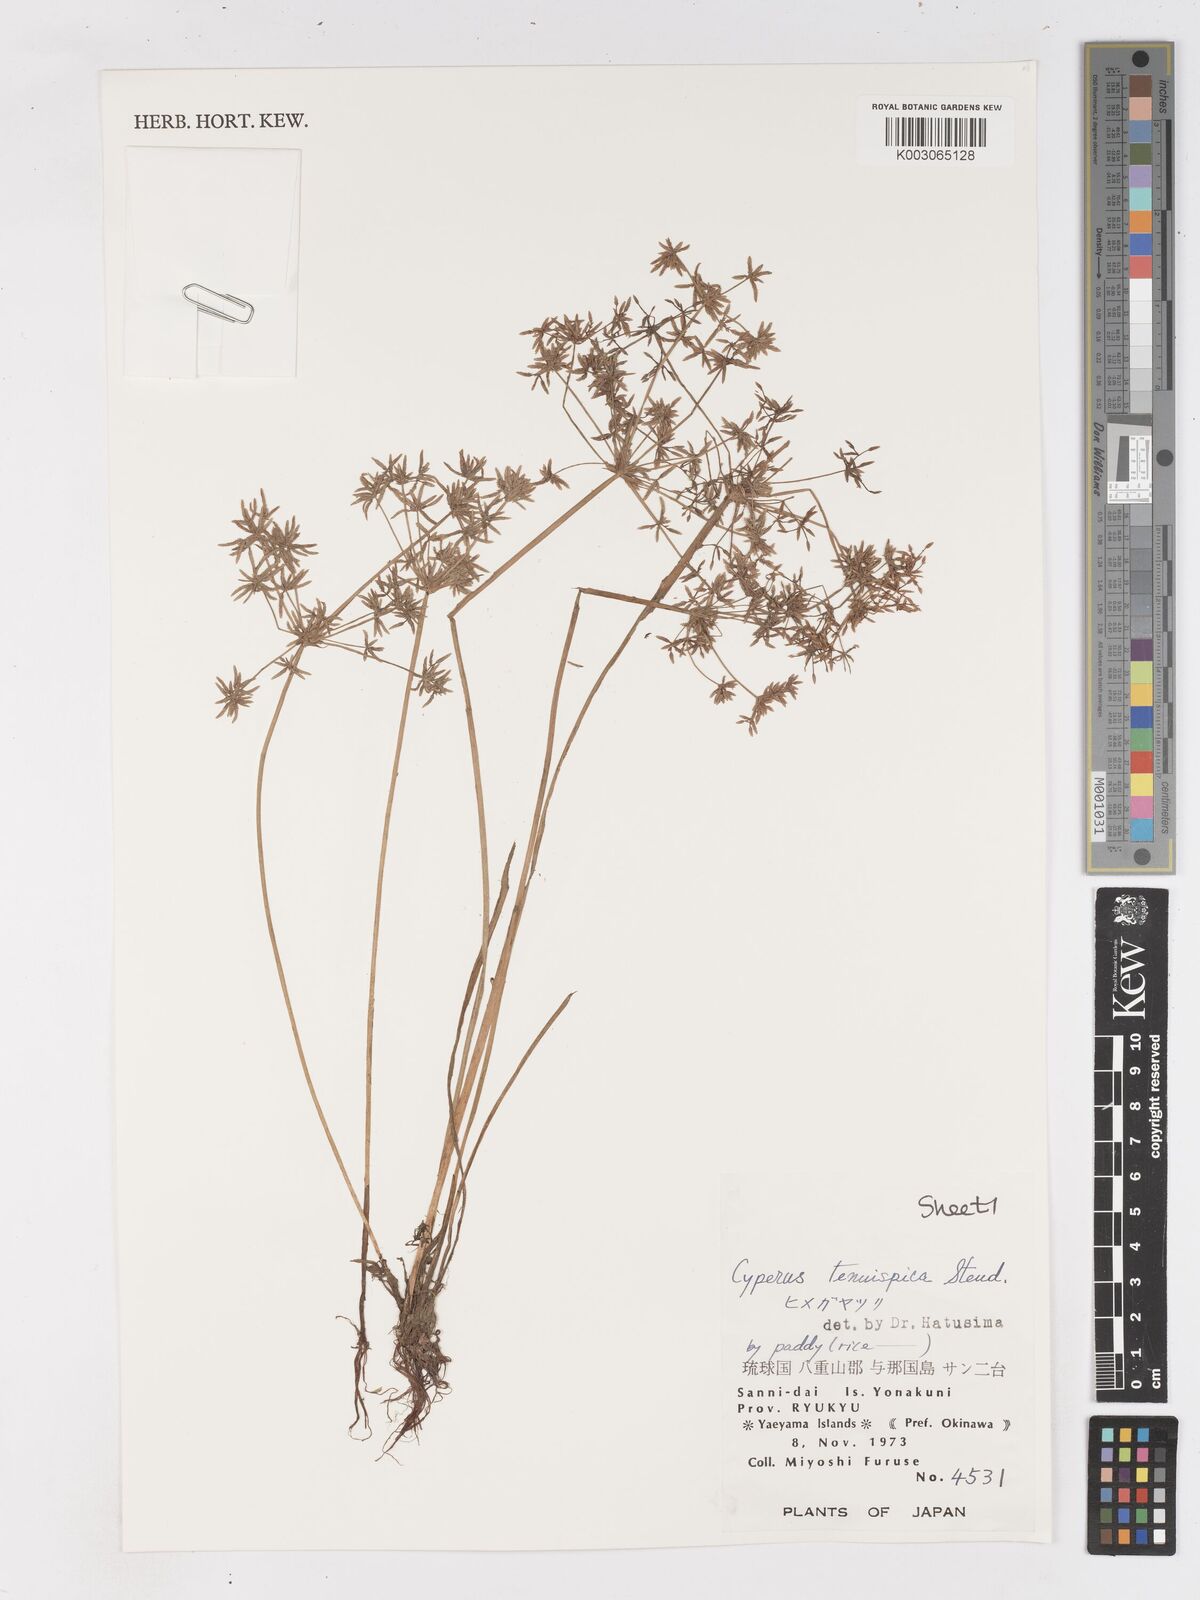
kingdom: Plantae
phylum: Tracheophyta
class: Liliopsida
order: Poales
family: Cyperaceae
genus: Cyperus
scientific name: Cyperus tenuispica
